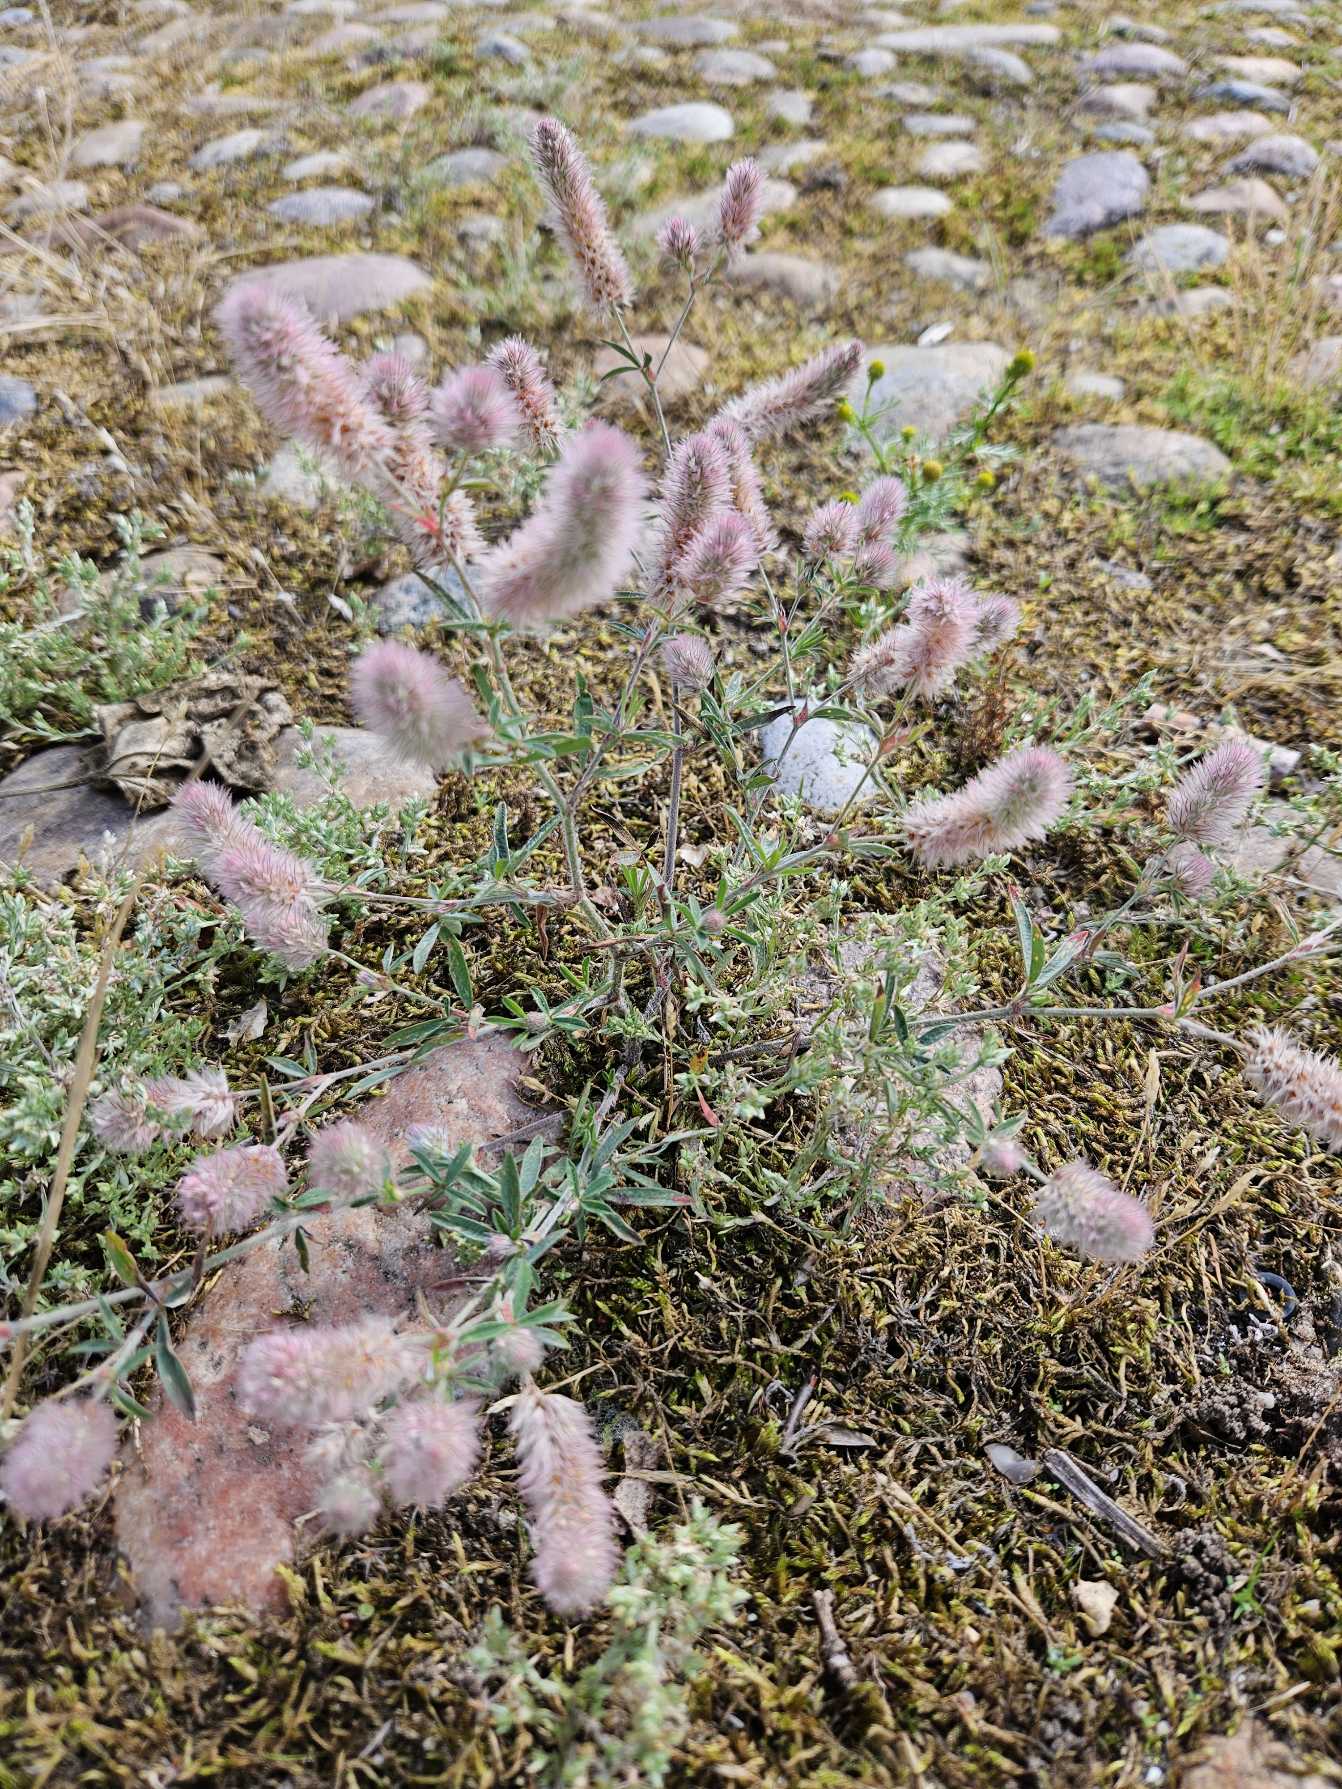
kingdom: Plantae
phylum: Tracheophyta
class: Magnoliopsida
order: Fabales
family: Fabaceae
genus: Trifolium
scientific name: Trifolium arvense
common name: Hare-kløver
